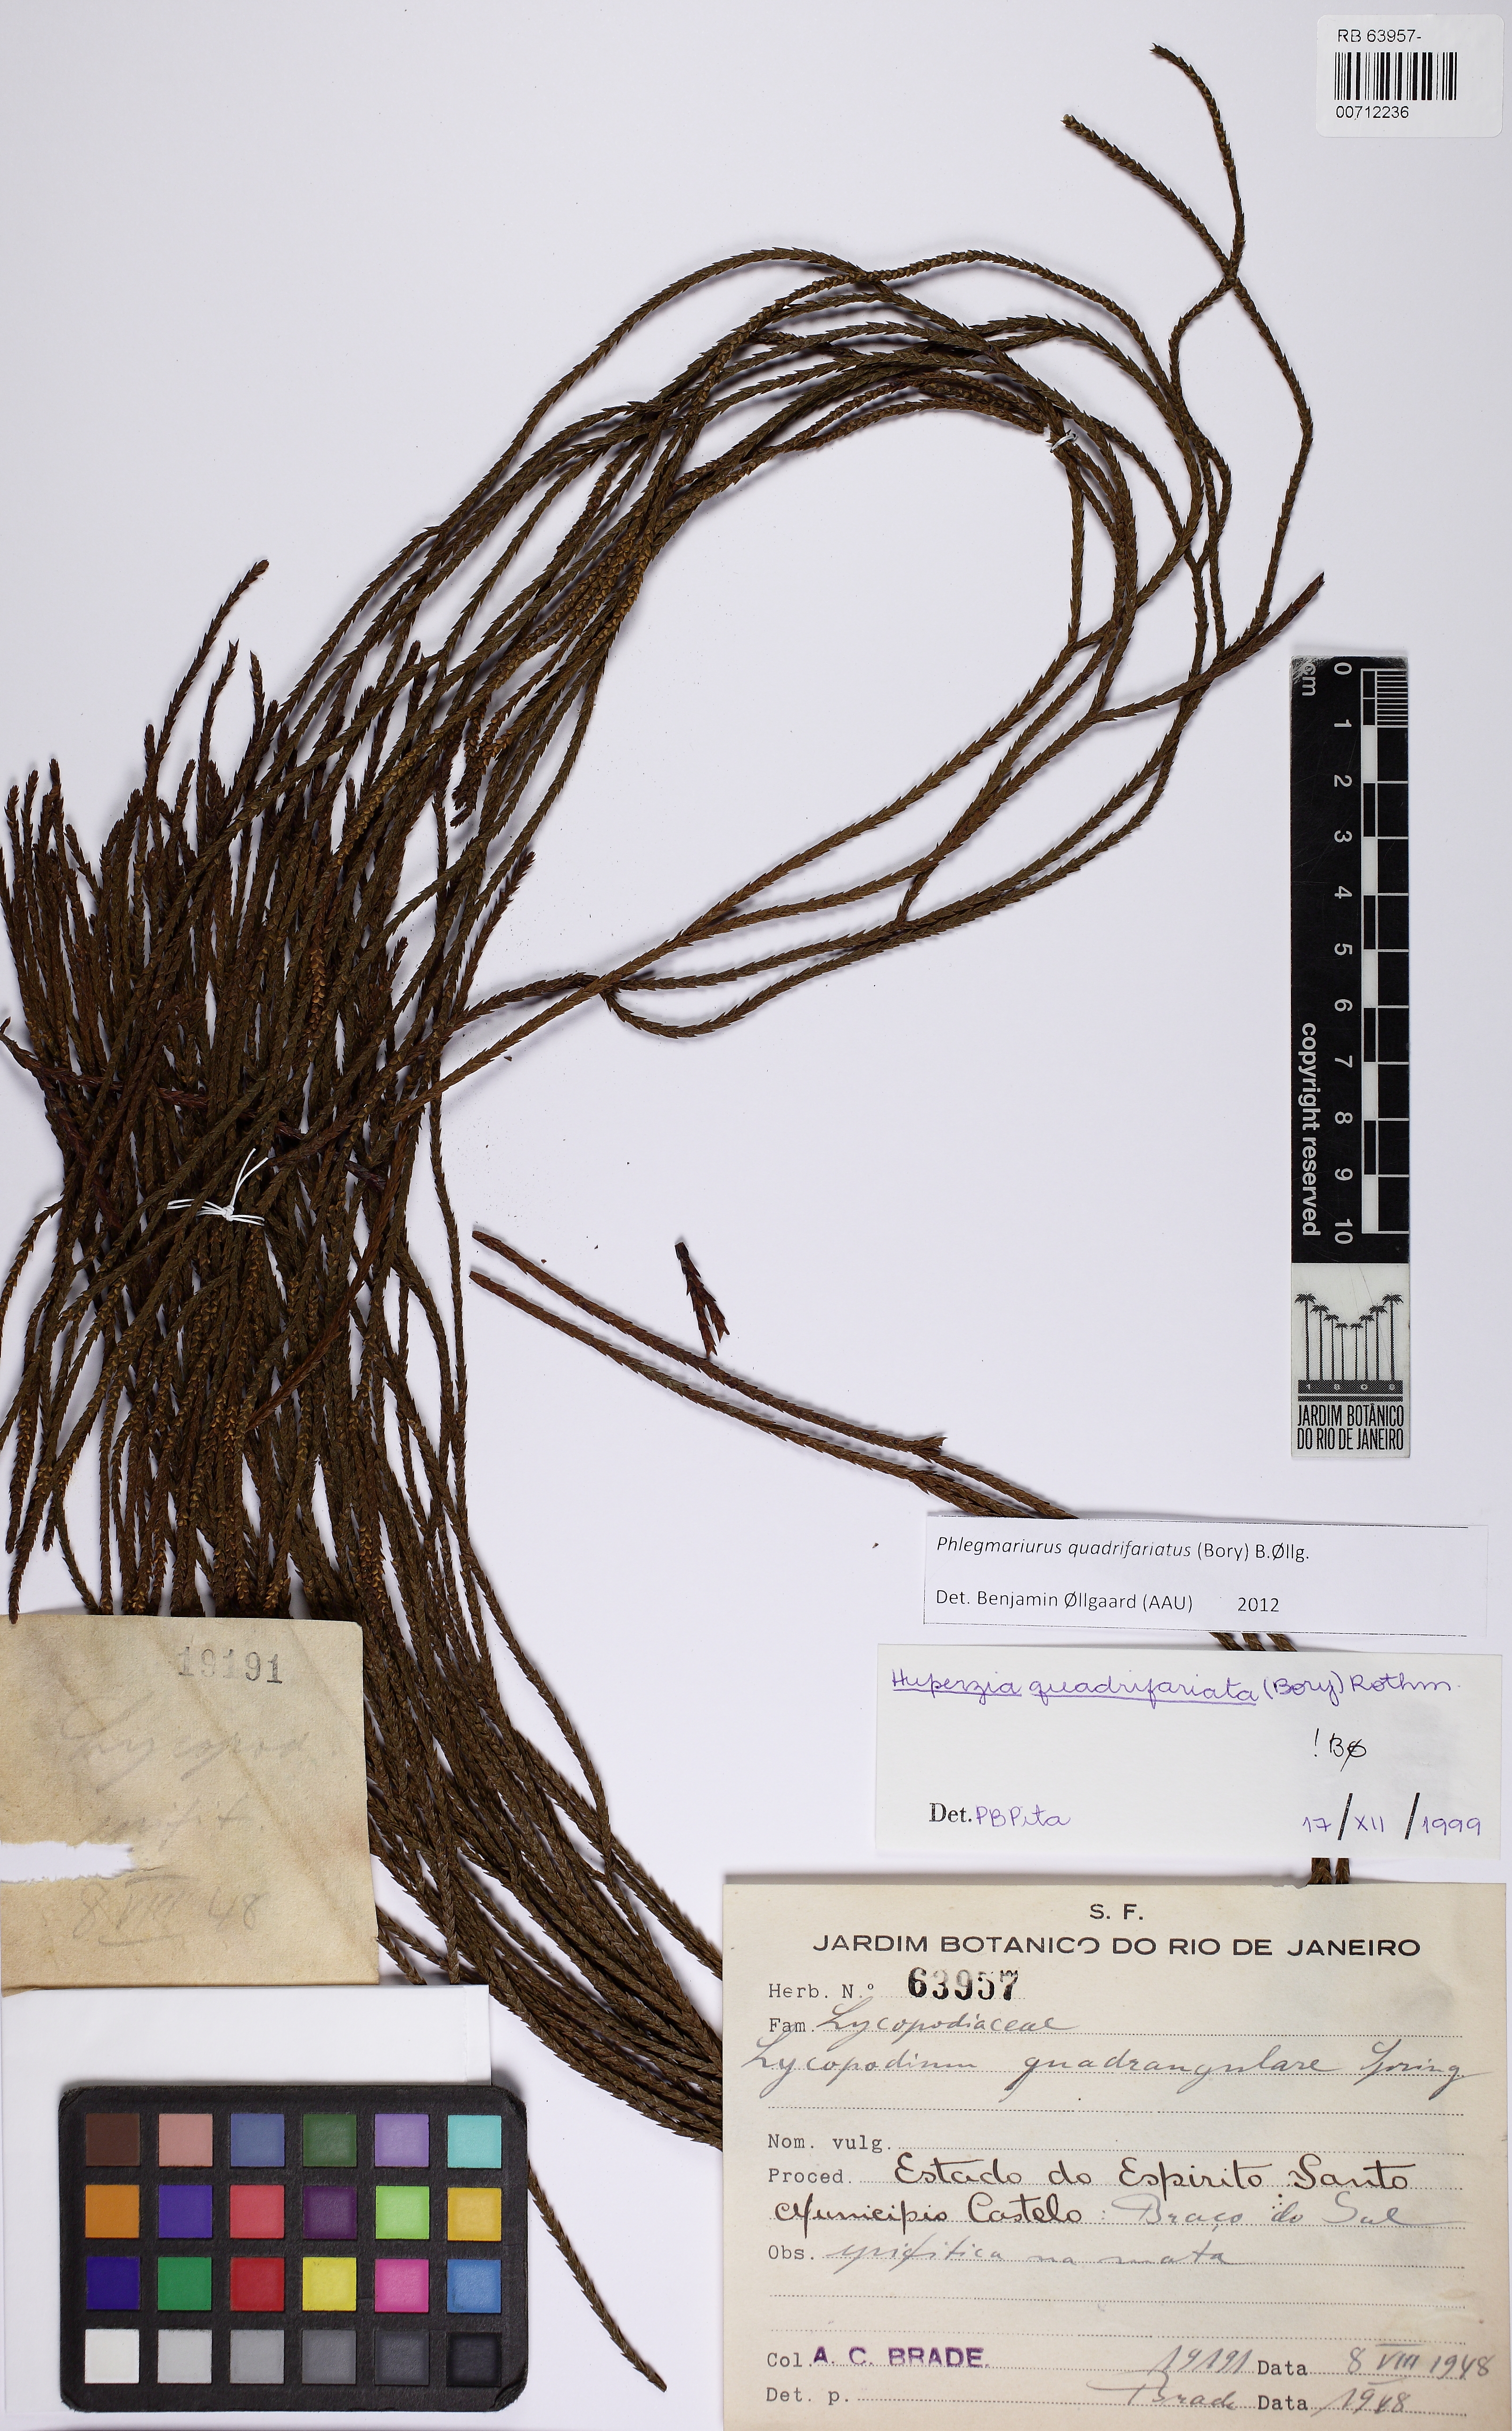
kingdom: Plantae
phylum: Tracheophyta
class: Lycopodiopsida
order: Lycopodiales
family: Lycopodiaceae
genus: Phlegmariurus
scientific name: Phlegmariurus quadrifariatus
